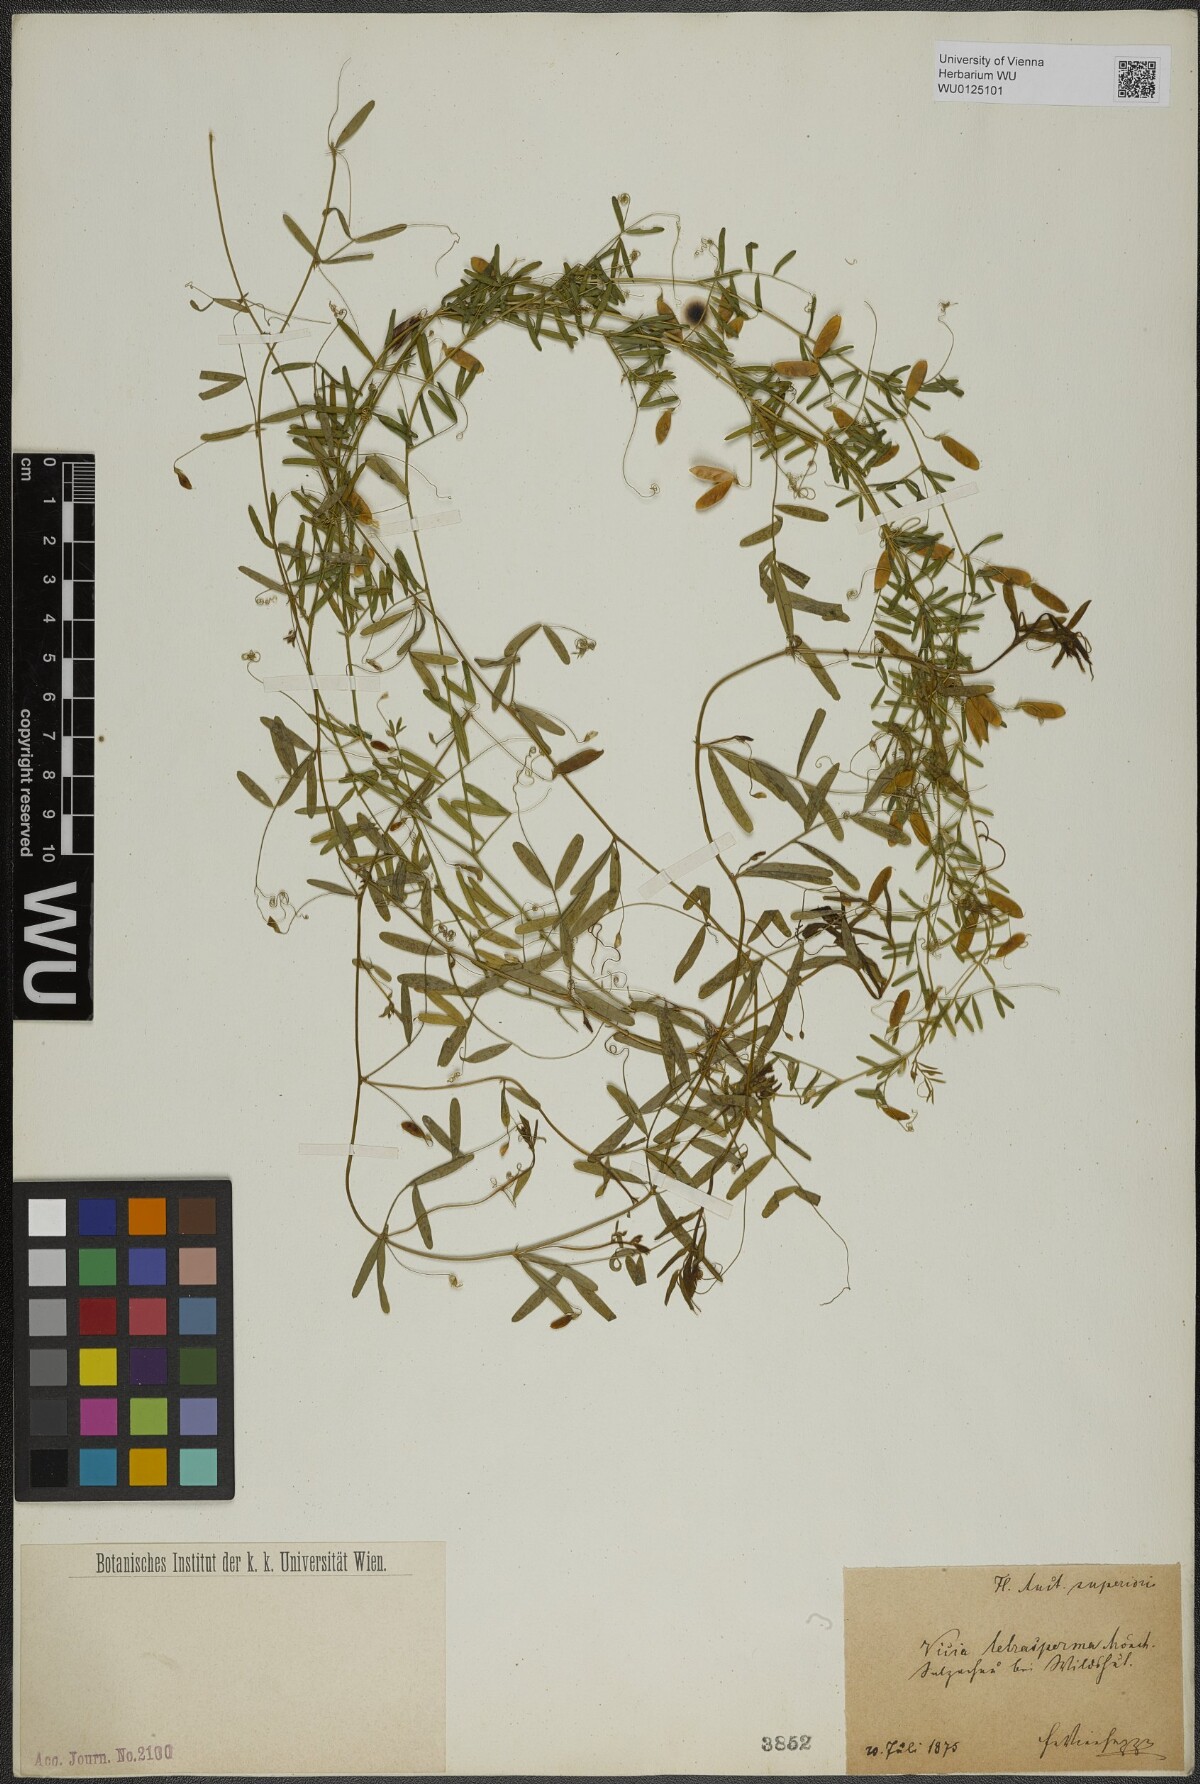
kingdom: Plantae
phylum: Tracheophyta
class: Magnoliopsida
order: Fabales
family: Fabaceae
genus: Vicia
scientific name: Vicia tetrasperma
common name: Smooth tare
